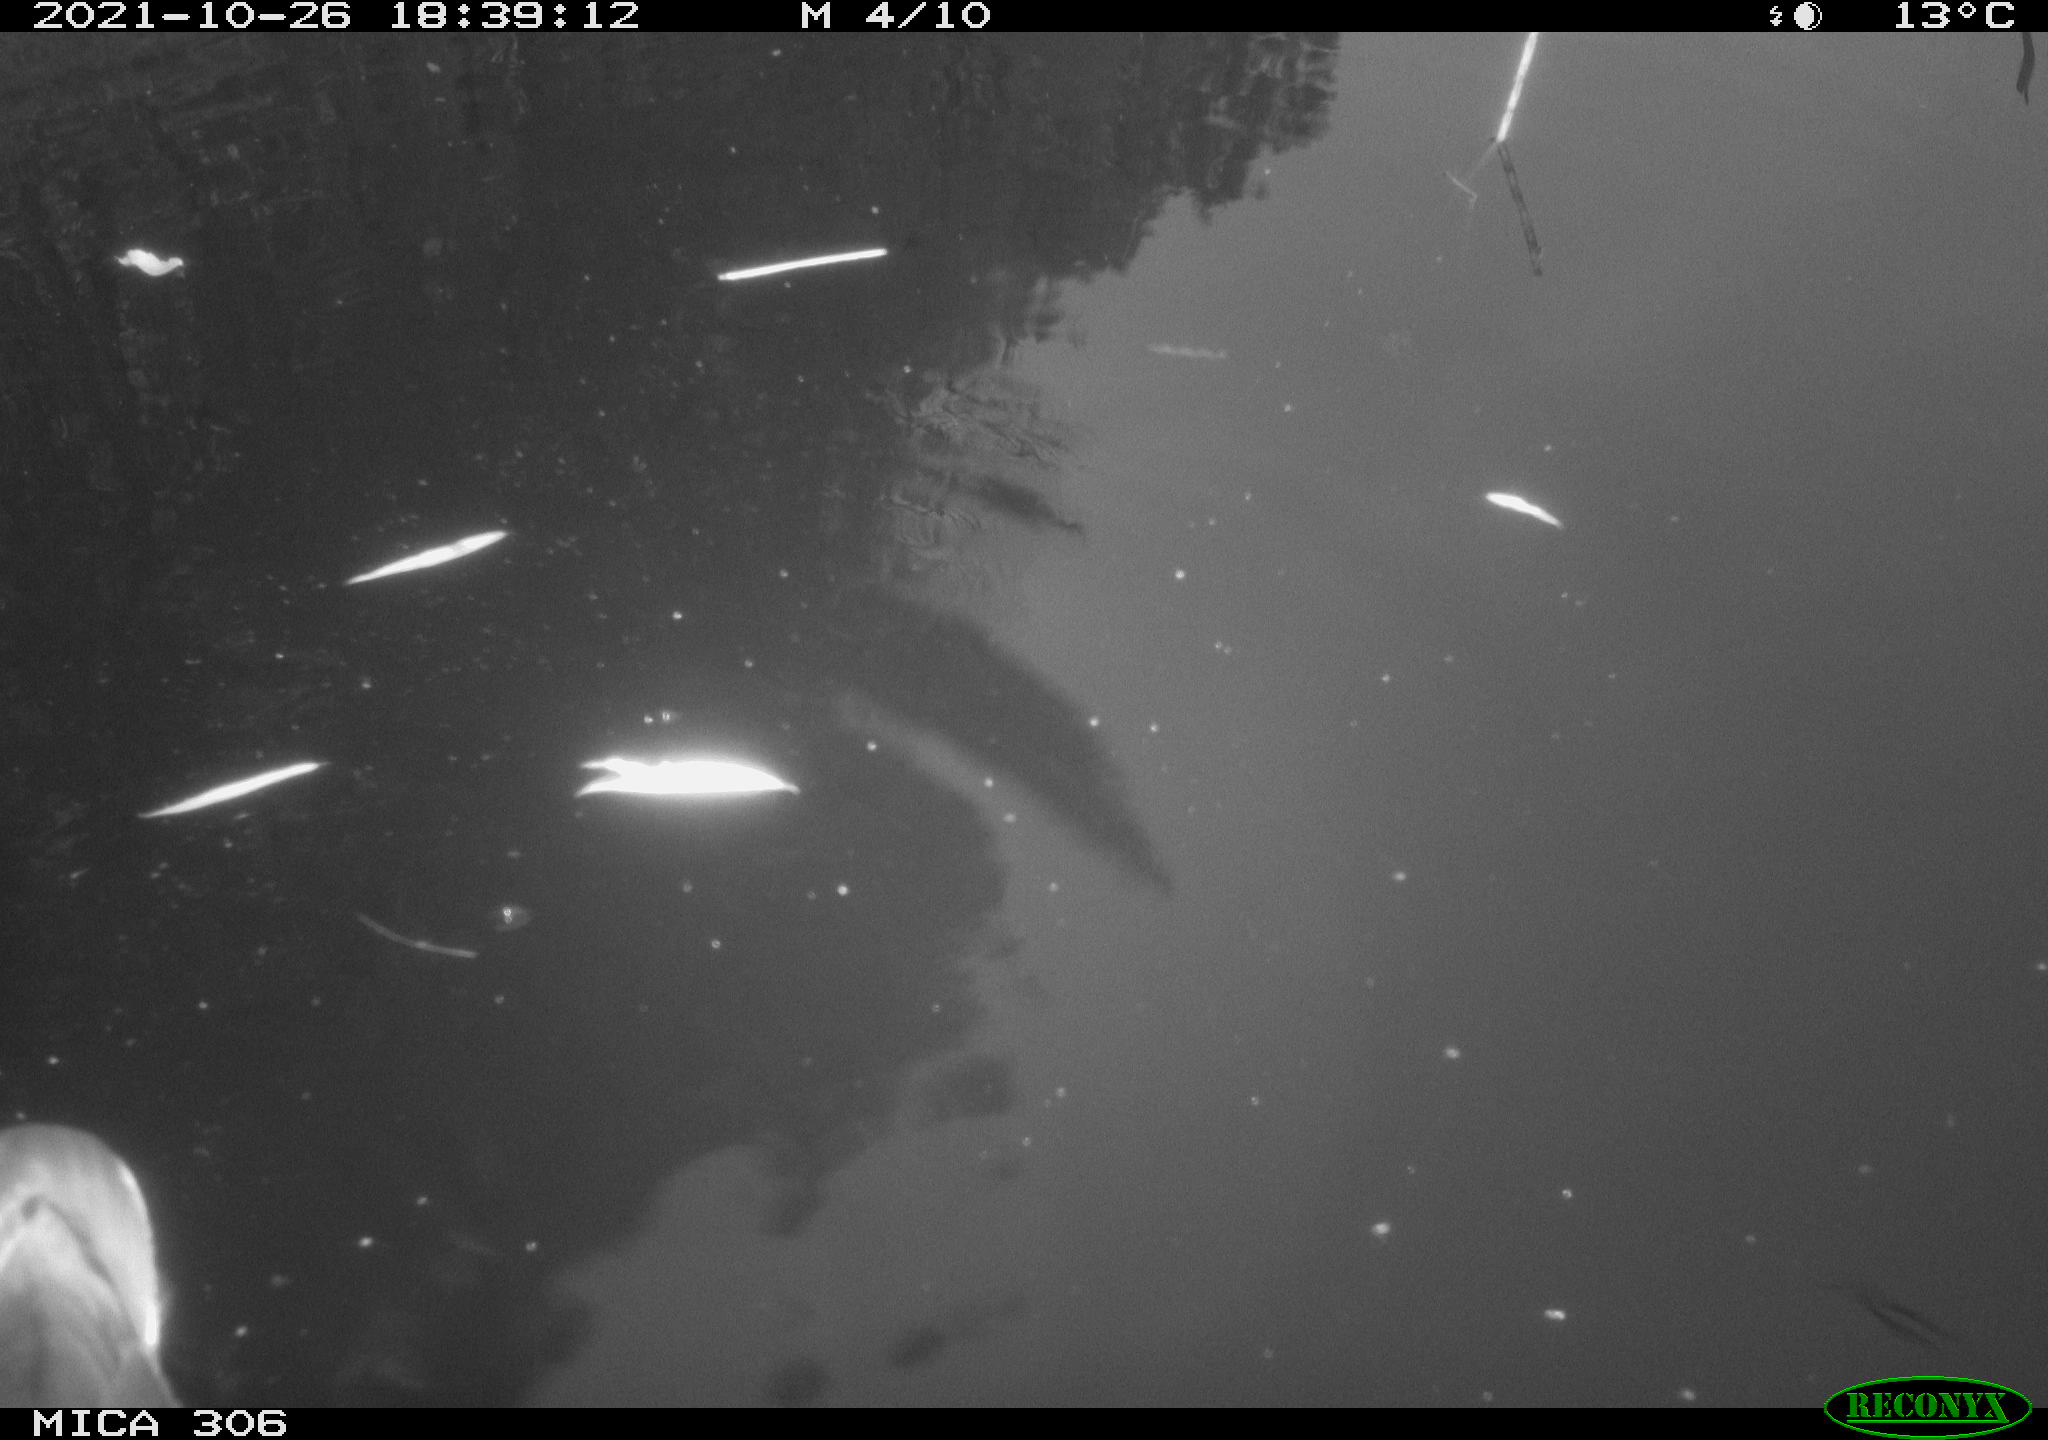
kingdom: Animalia
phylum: Chordata
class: Aves
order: Gruiformes
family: Rallidae
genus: Gallinula
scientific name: Gallinula chloropus
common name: Common moorhen
